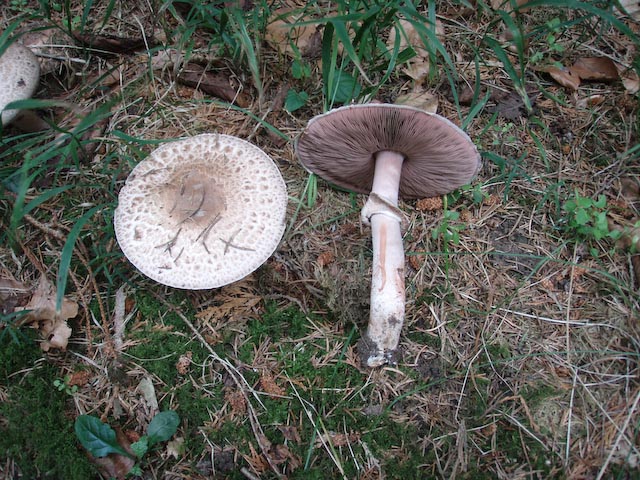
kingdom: Fungi
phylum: Basidiomycota
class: Agaricomycetes
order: Agaricales
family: Agaricaceae
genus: Agaricus
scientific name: Agaricus langei
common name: stor blod-champignon
